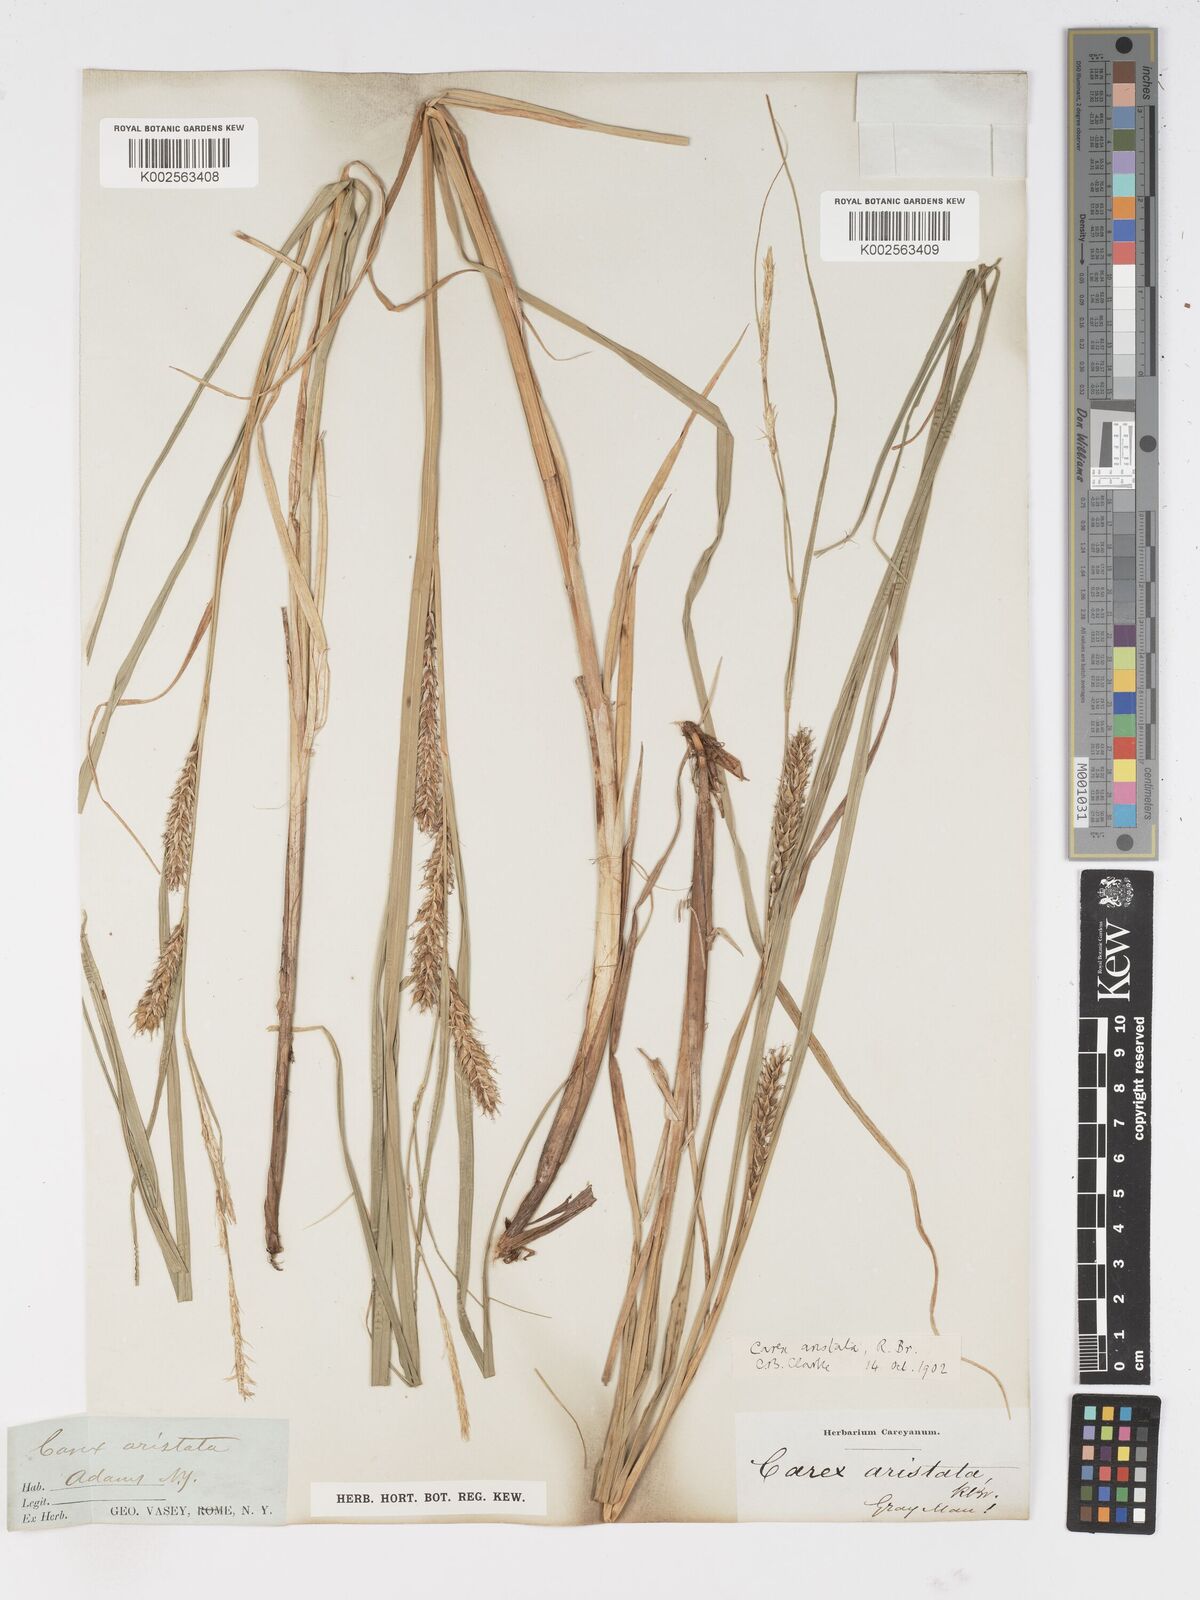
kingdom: Plantae
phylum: Tracheophyta
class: Liliopsida
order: Poales
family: Cyperaceae
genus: Carex
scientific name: Carex atherodes
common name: Wheat sedge
